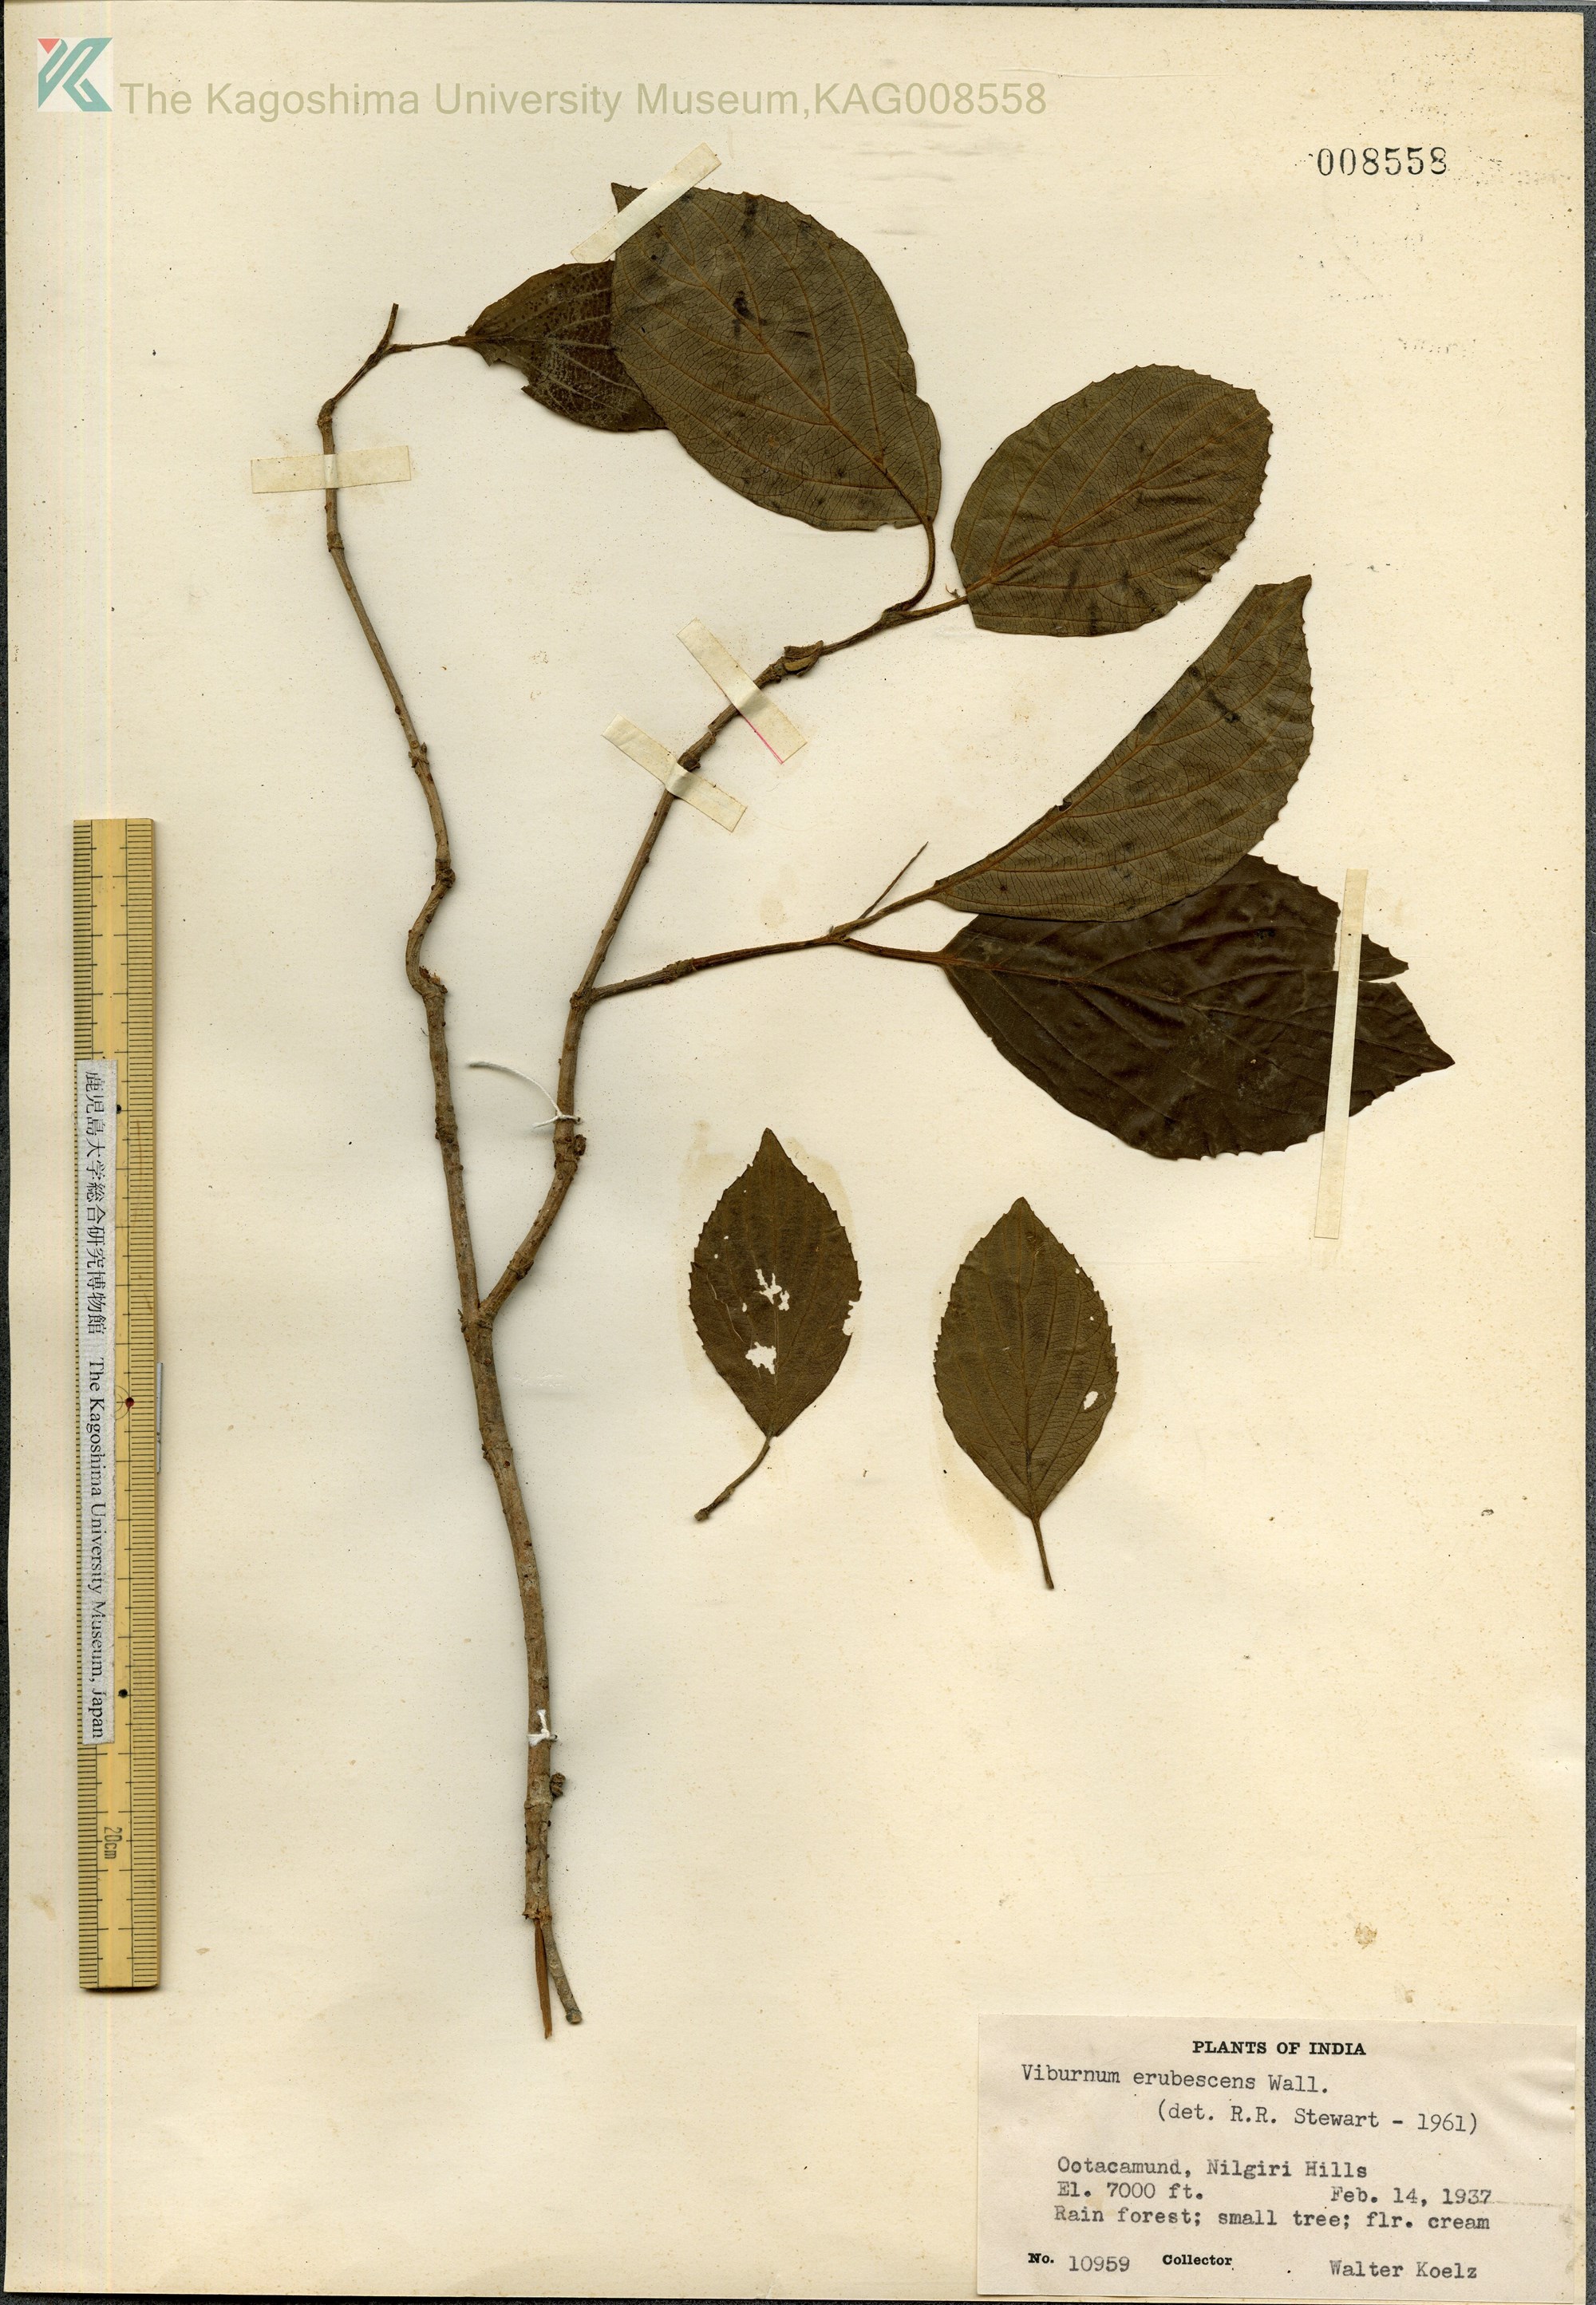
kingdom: Plantae
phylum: Tracheophyta
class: Magnoliopsida
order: Dipsacales
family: Viburnaceae
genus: Viburnum
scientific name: Viburnum erubescens
